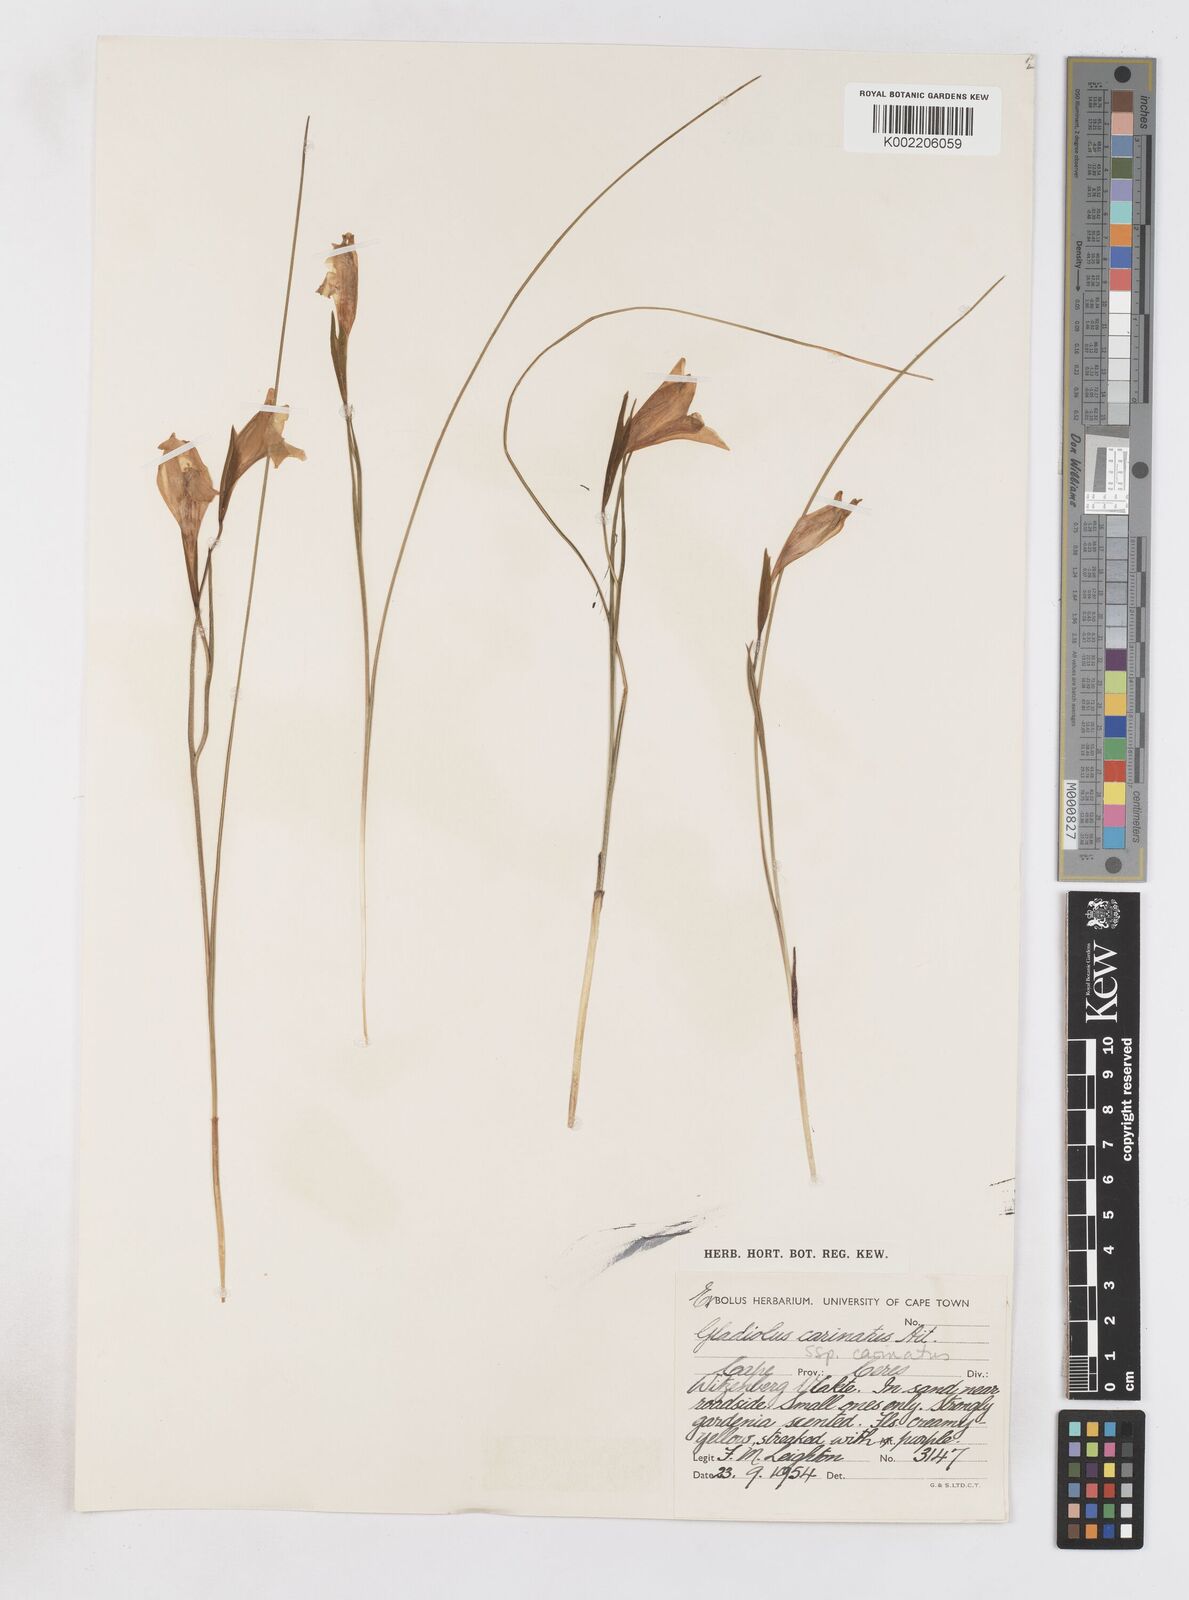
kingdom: Plantae
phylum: Tracheophyta
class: Liliopsida
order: Asparagales
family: Iridaceae
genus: Gladiolus
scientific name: Gladiolus carinatus
